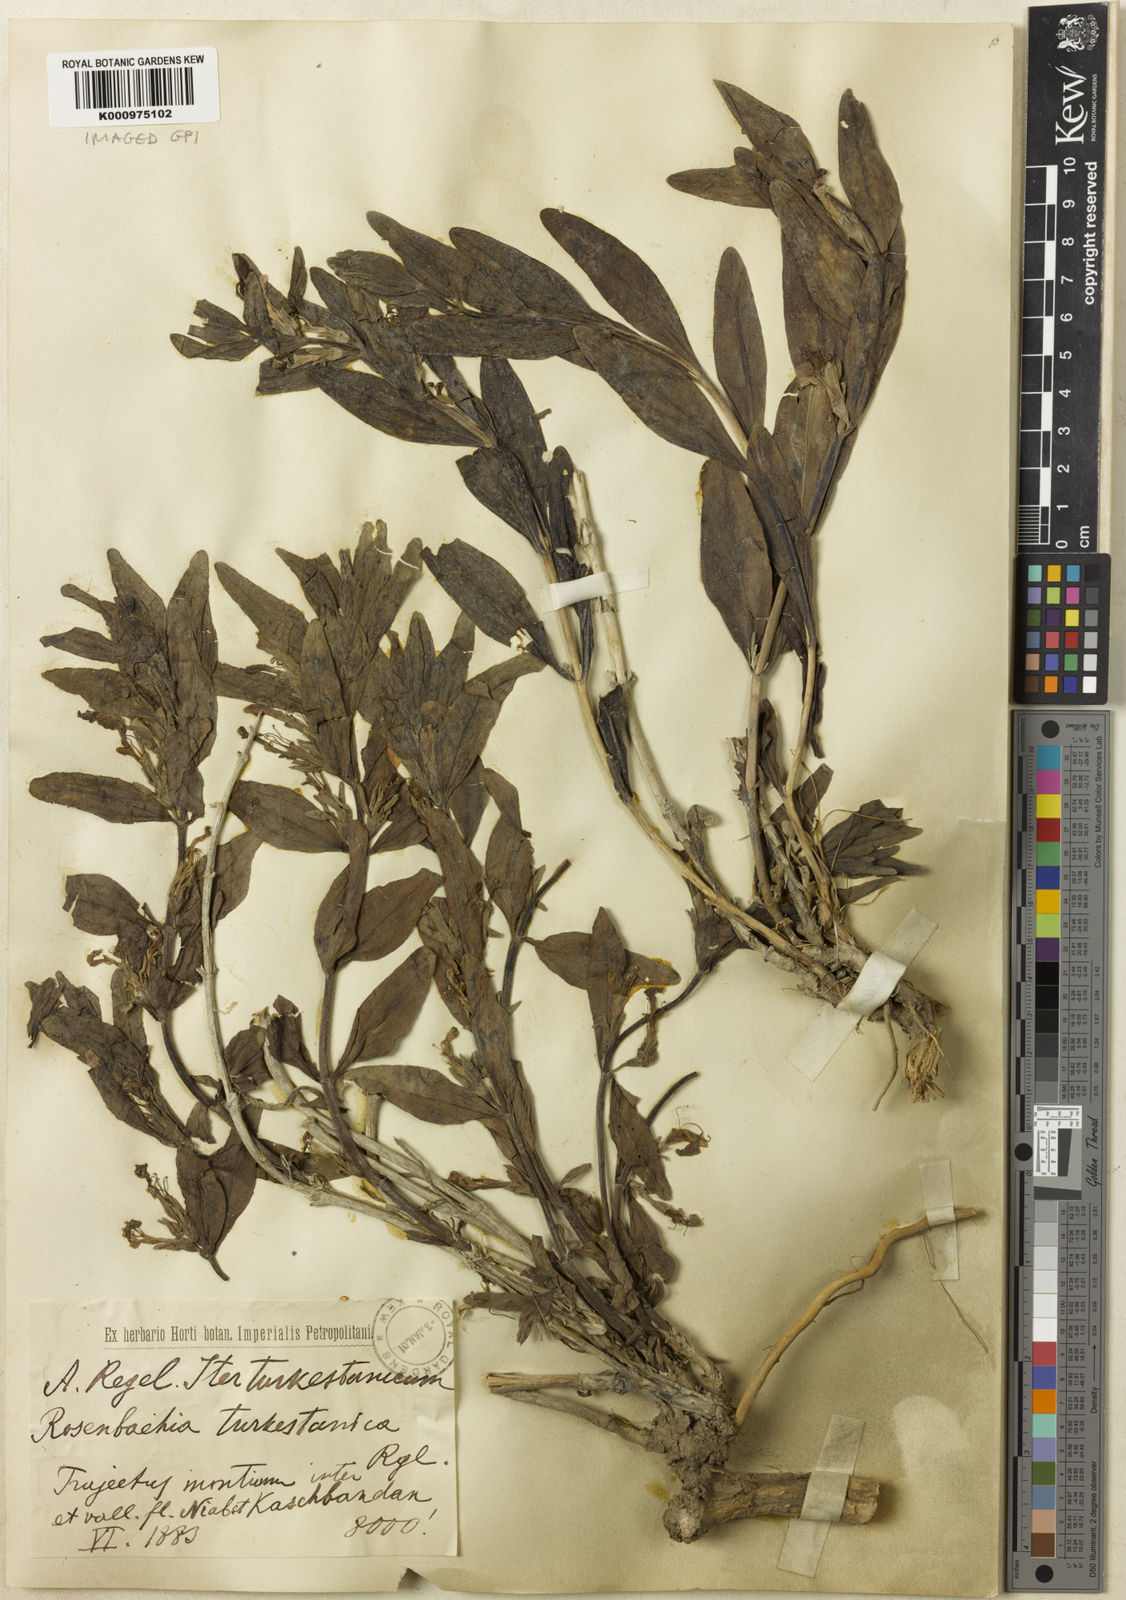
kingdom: Plantae
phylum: Tracheophyta
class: Magnoliopsida
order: Lamiales
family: Lamiaceae
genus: Ajuga
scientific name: Ajuga turkestanica
